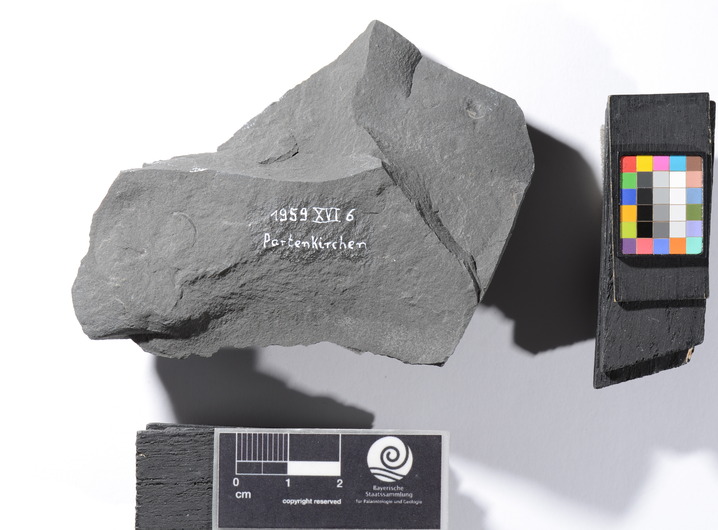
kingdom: Animalia
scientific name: Animalia
